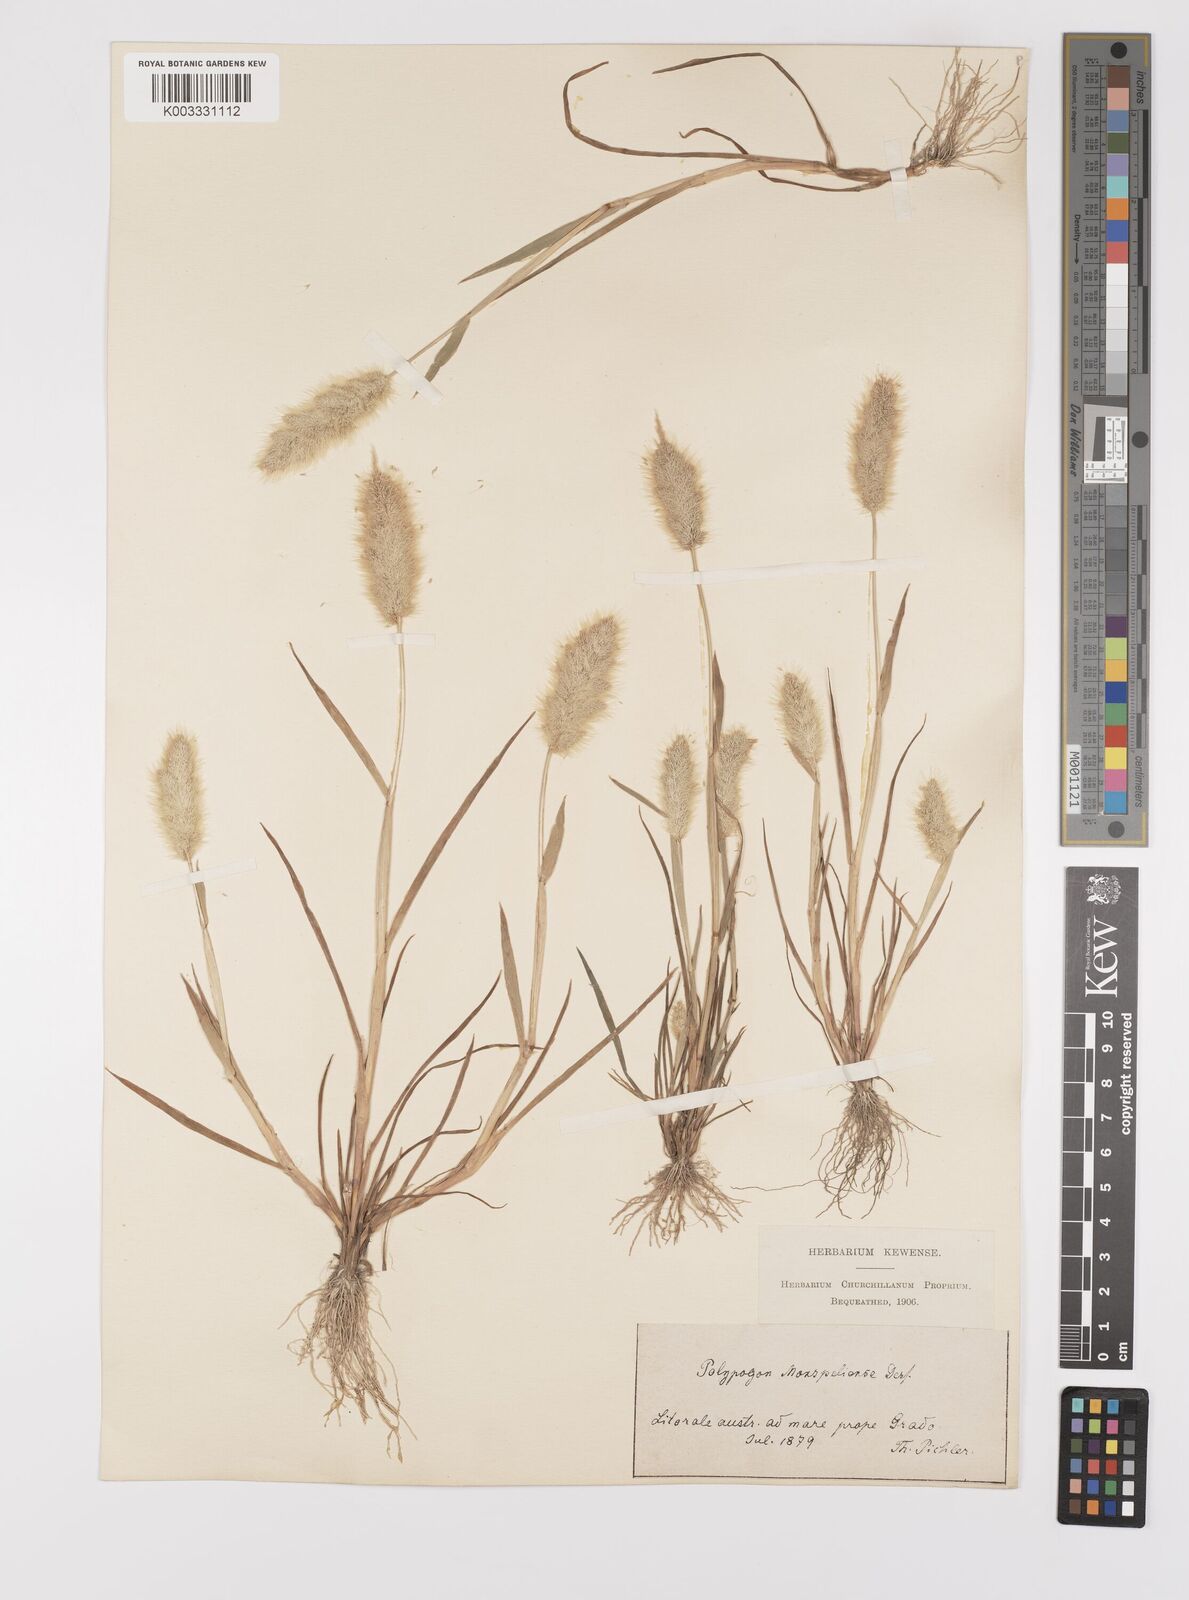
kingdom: Plantae
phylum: Tracheophyta
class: Liliopsida
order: Poales
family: Poaceae
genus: Polypogon
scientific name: Polypogon monspeliensis
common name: Annual rabbitsfoot grass
